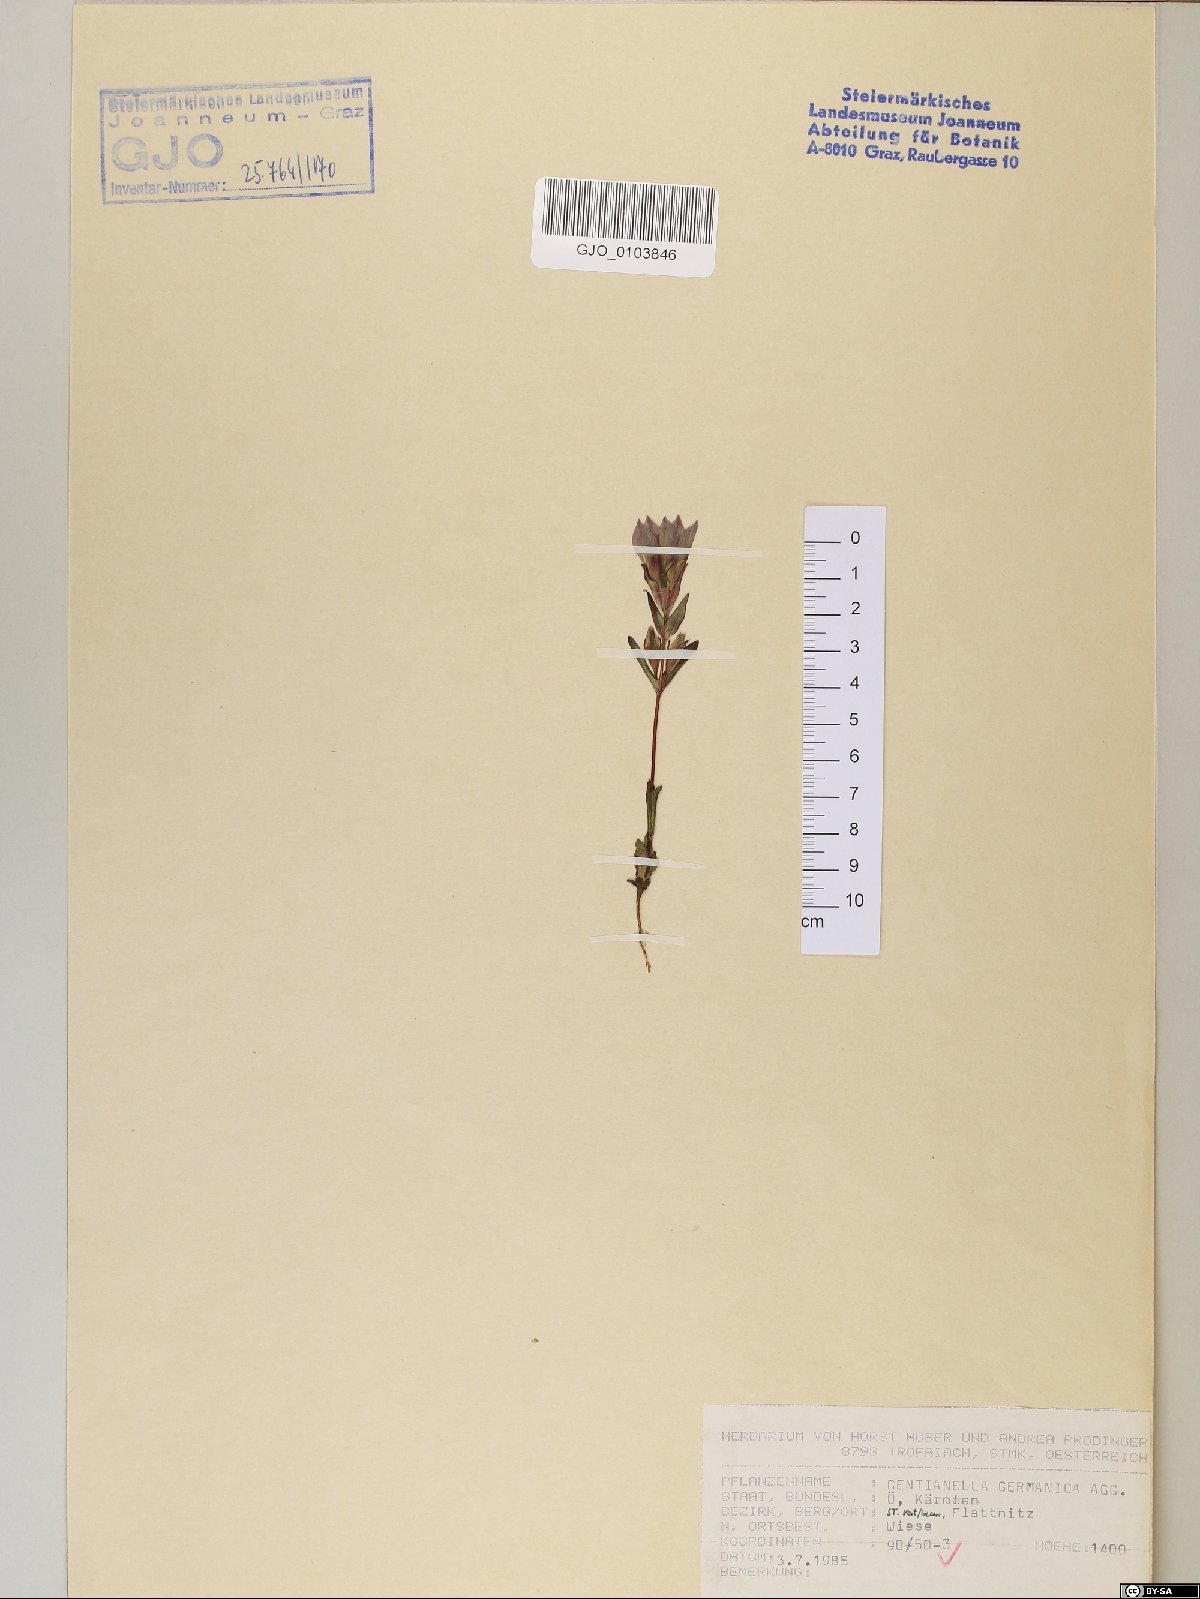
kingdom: Plantae
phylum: Tracheophyta
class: Magnoliopsida
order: Gentianales
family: Gentianaceae
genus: Gentianella
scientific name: Gentianella germanica
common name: Chiltern-gentian
